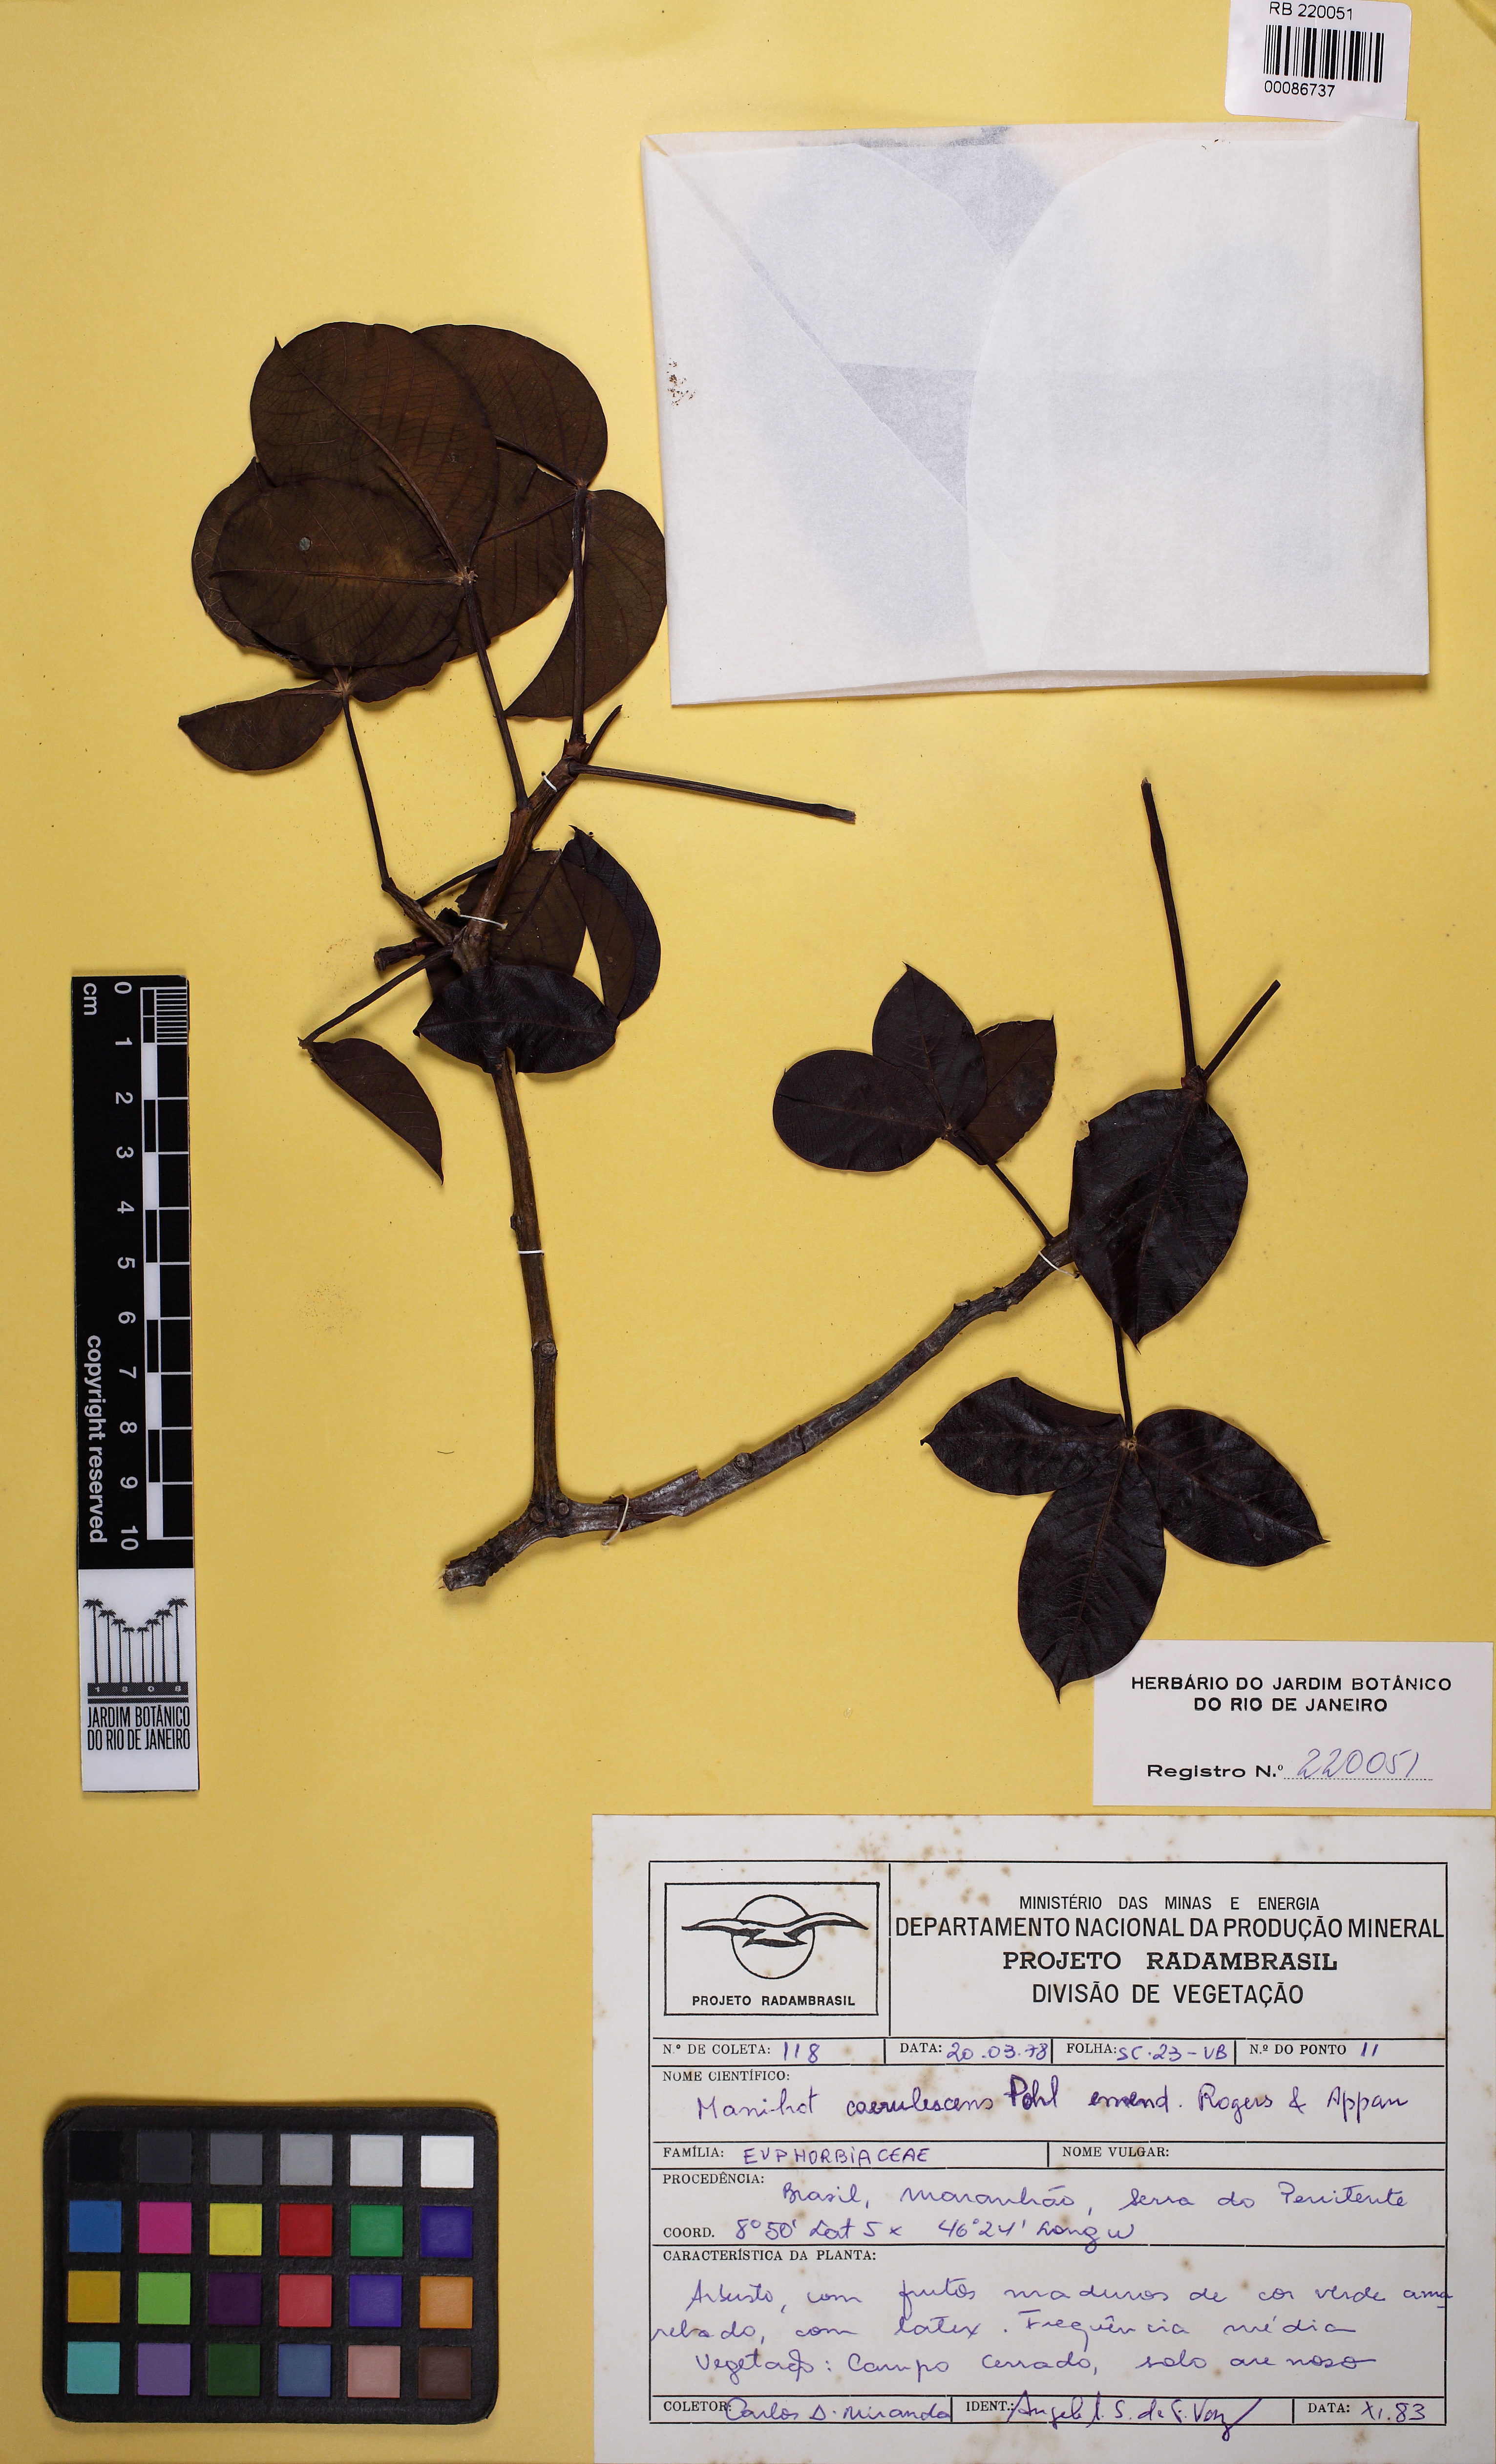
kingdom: Plantae
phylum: Tracheophyta
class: Magnoliopsida
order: Malpighiales
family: Euphorbiaceae
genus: Manihot
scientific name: Manihot caerulescens
